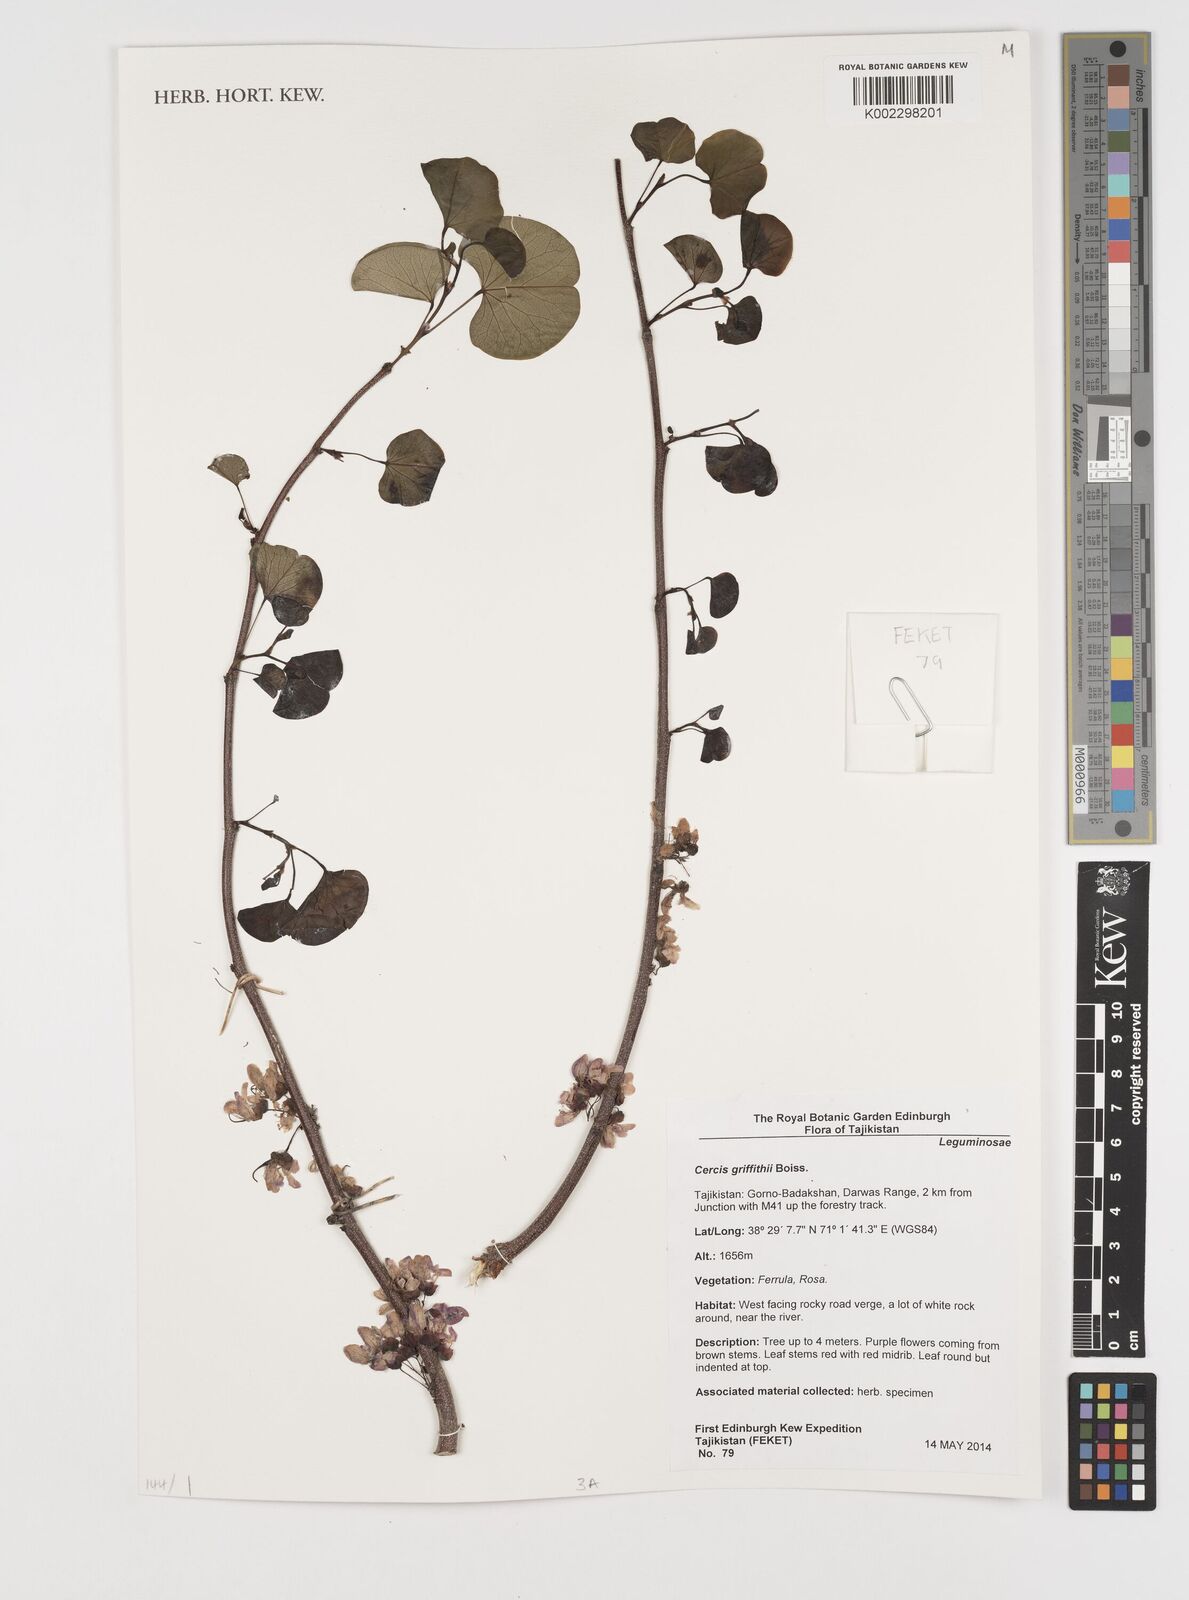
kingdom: Plantae
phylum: Tracheophyta
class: Magnoliopsida
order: Fabales
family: Fabaceae
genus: Cercis
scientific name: Cercis griffithii
